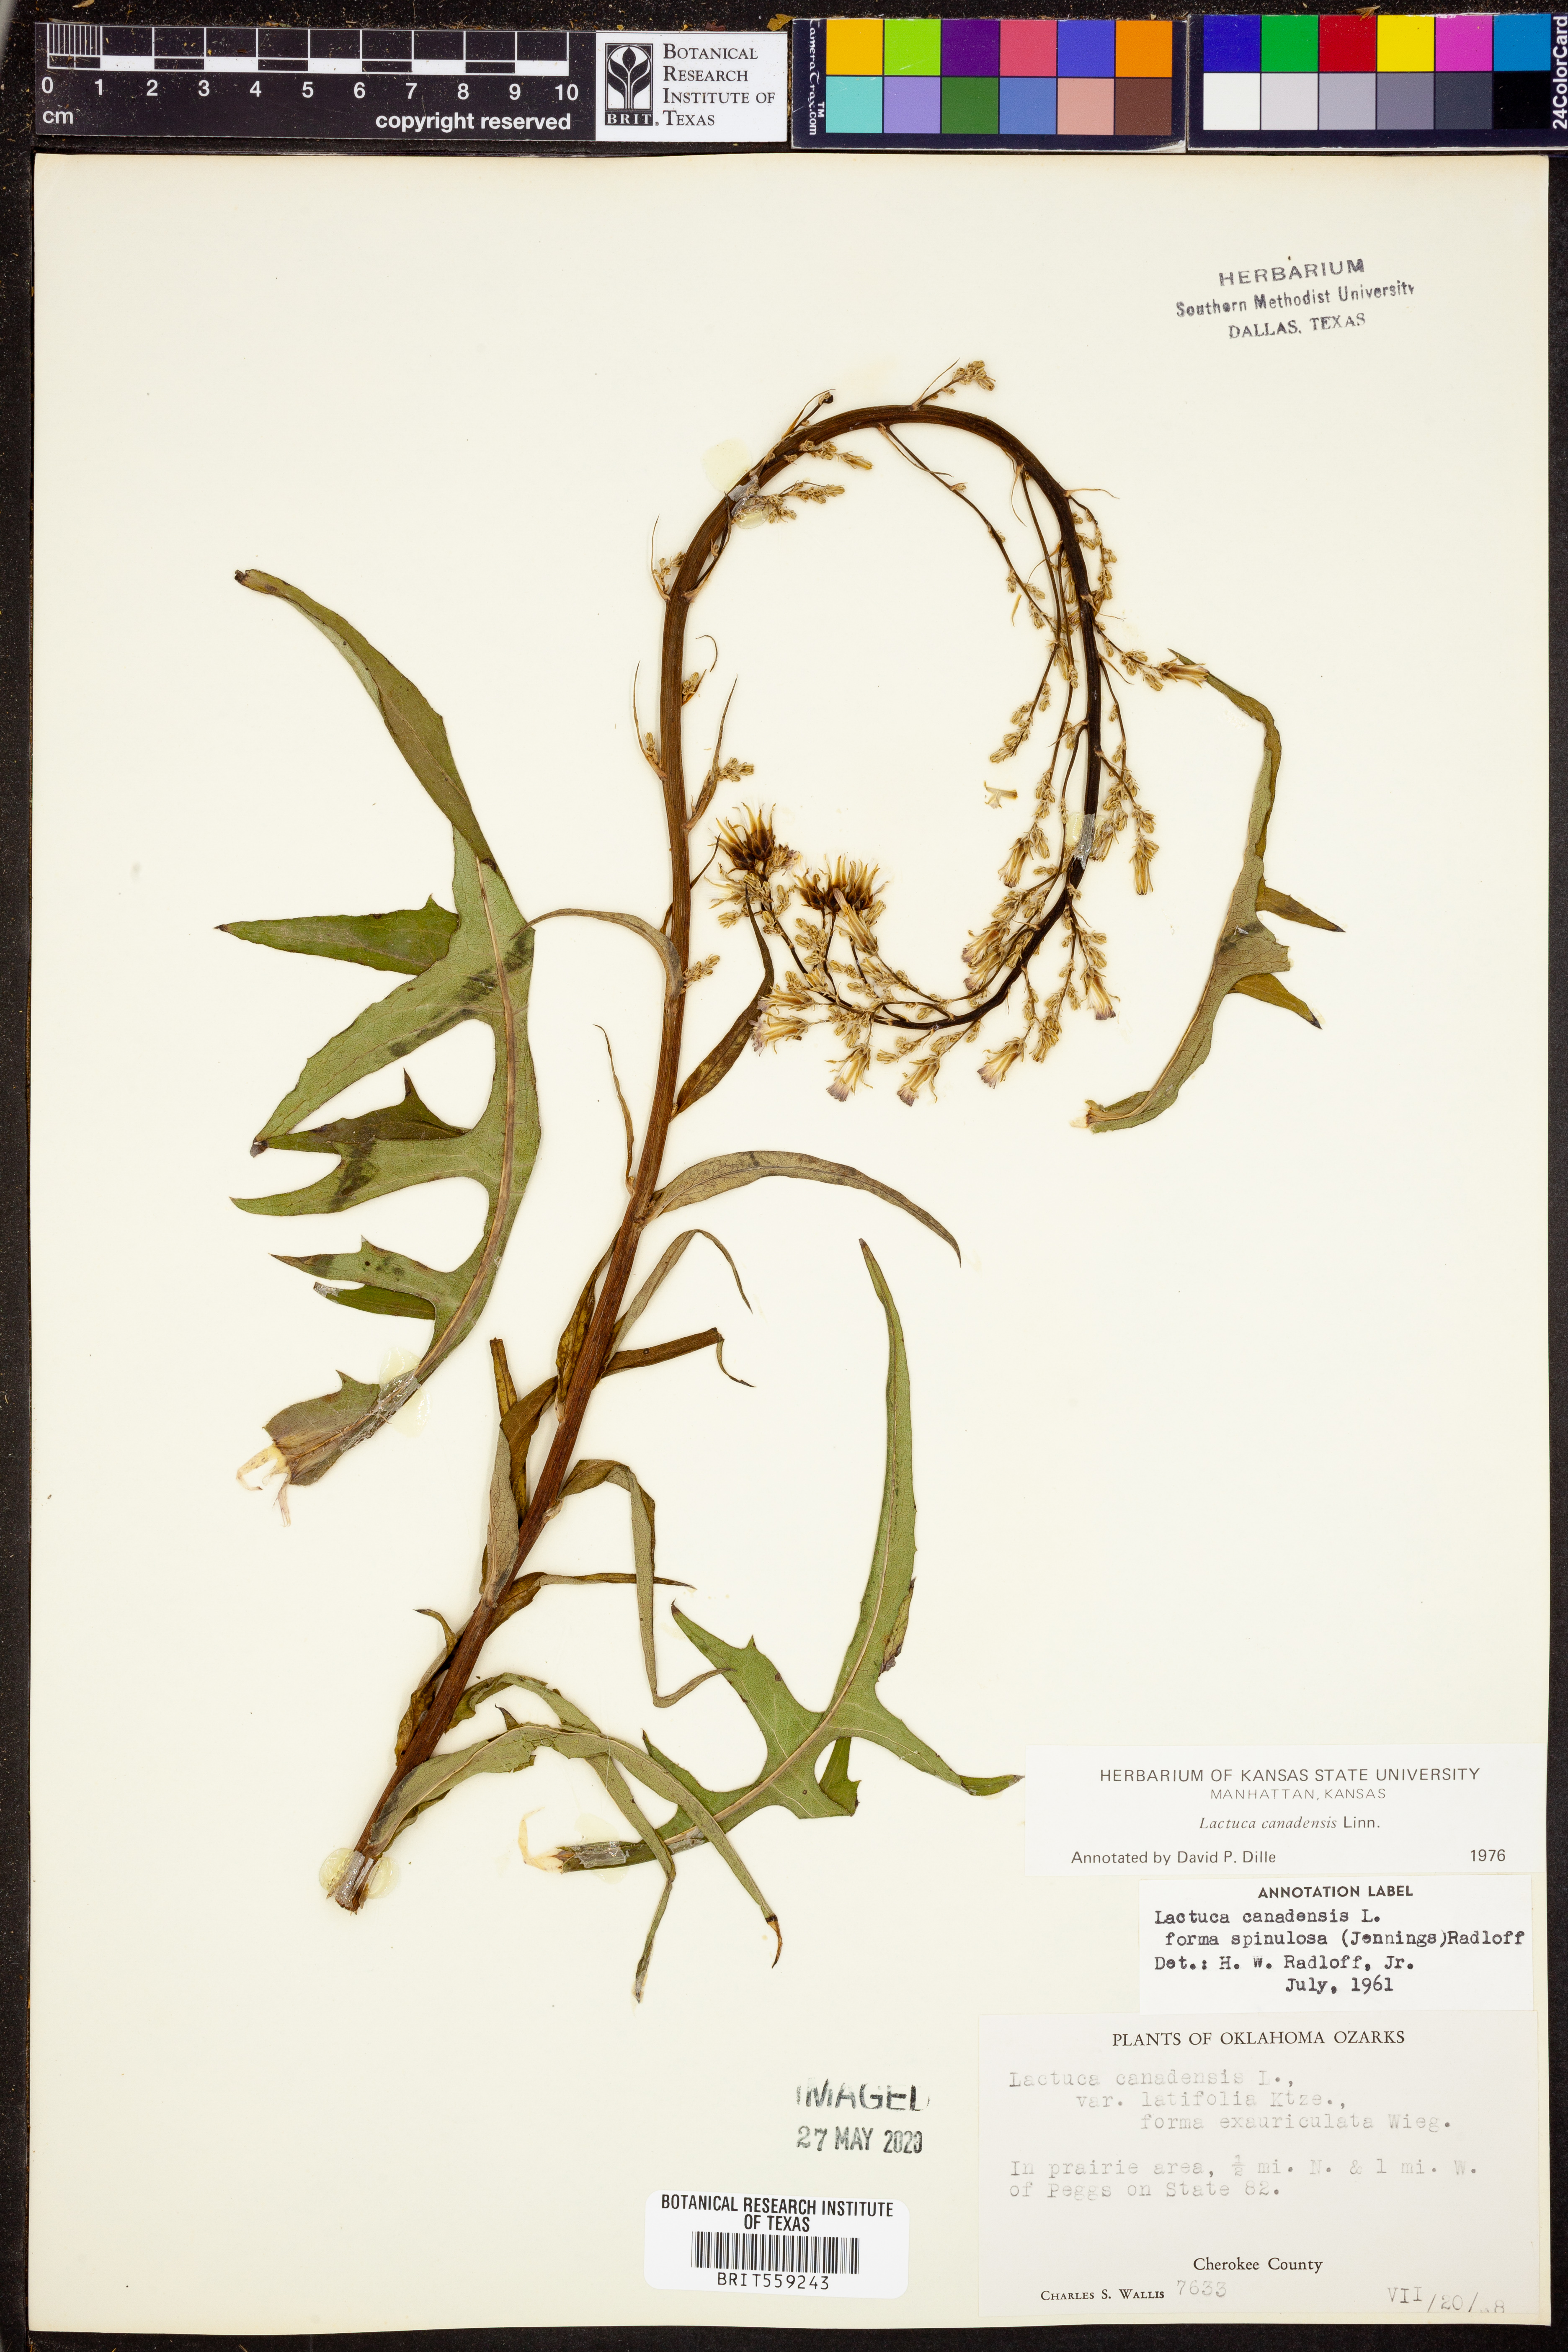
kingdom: Plantae
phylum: Tracheophyta
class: Magnoliopsida
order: Asterales
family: Asteraceae
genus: Lactuca
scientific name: Lactuca canadensis
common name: Canada lettuce
